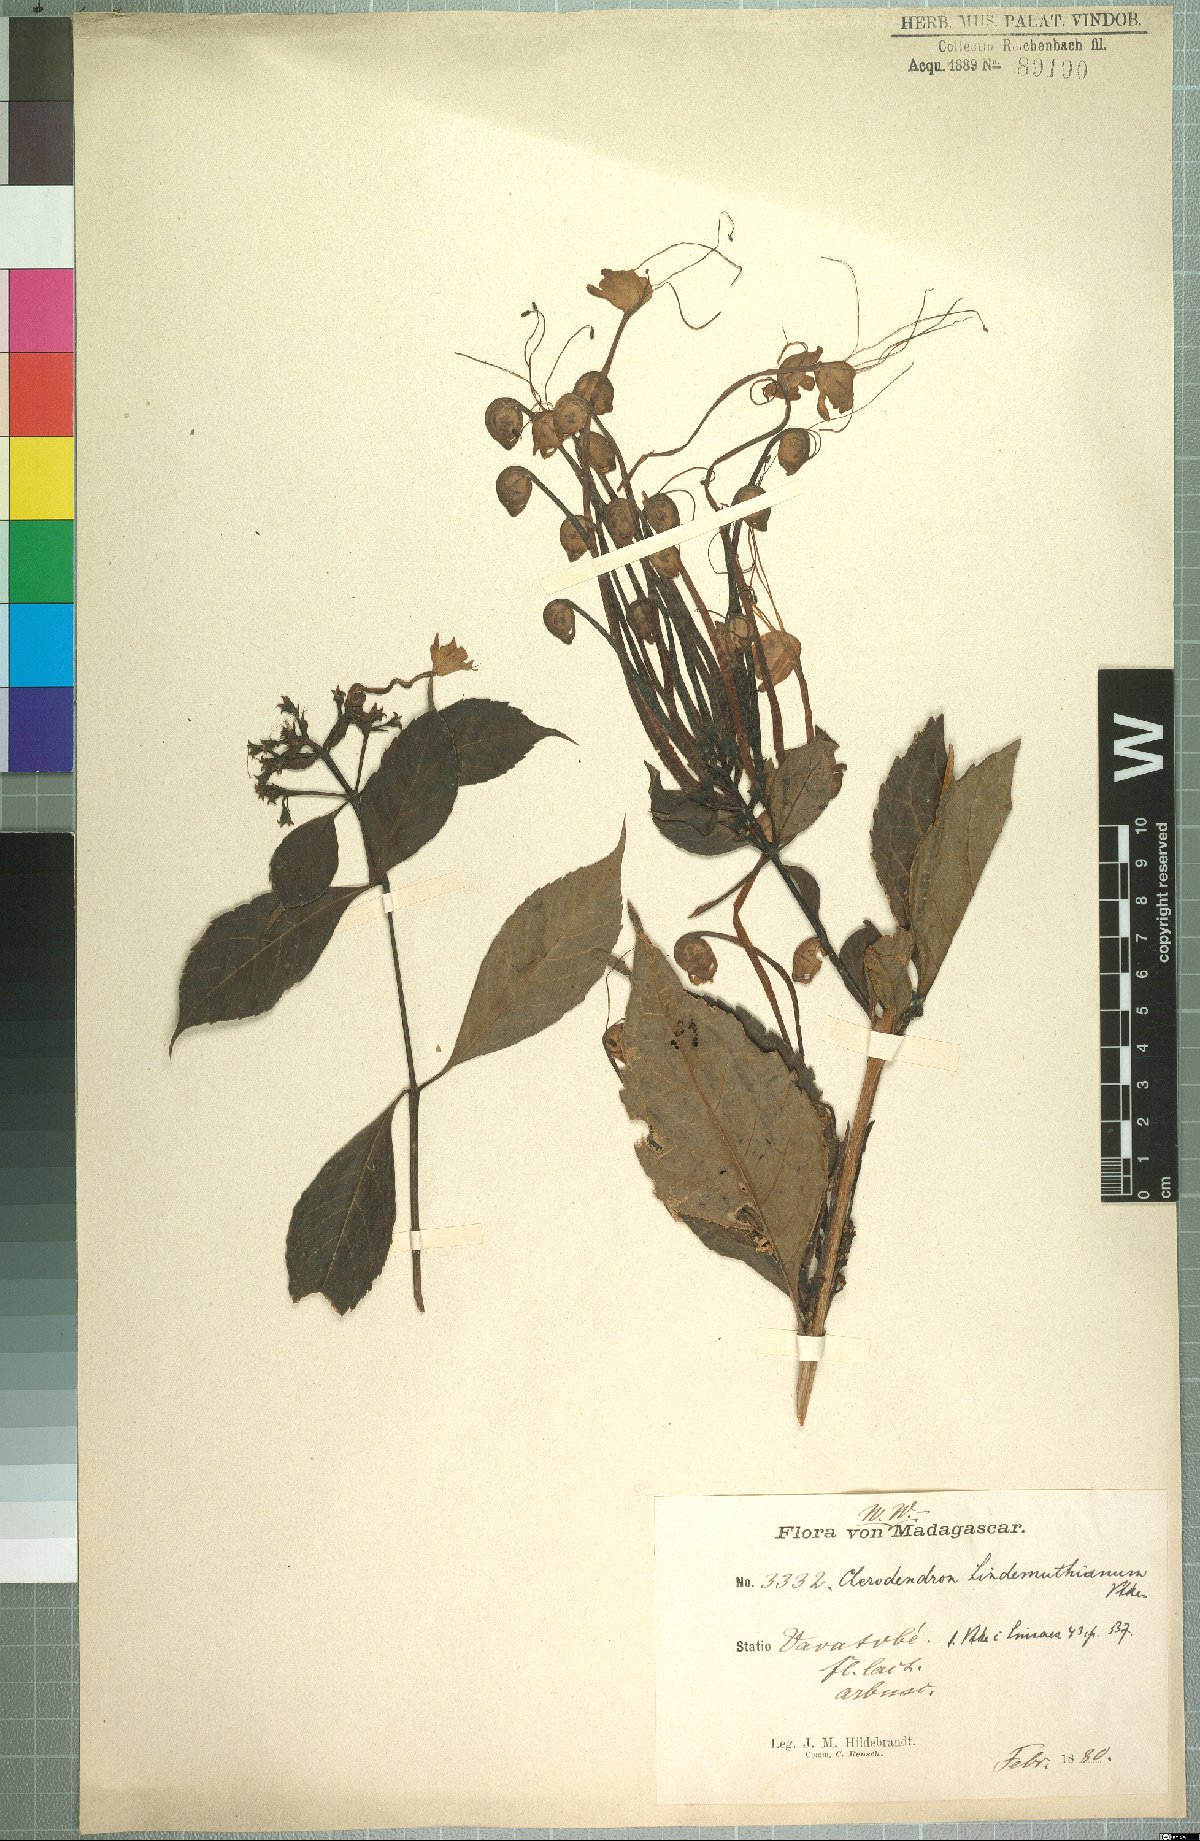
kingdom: Plantae
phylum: Tracheophyta
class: Magnoliopsida
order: Lamiales
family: Lamiaceae
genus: Rotheca
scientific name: Rotheca microphylla
